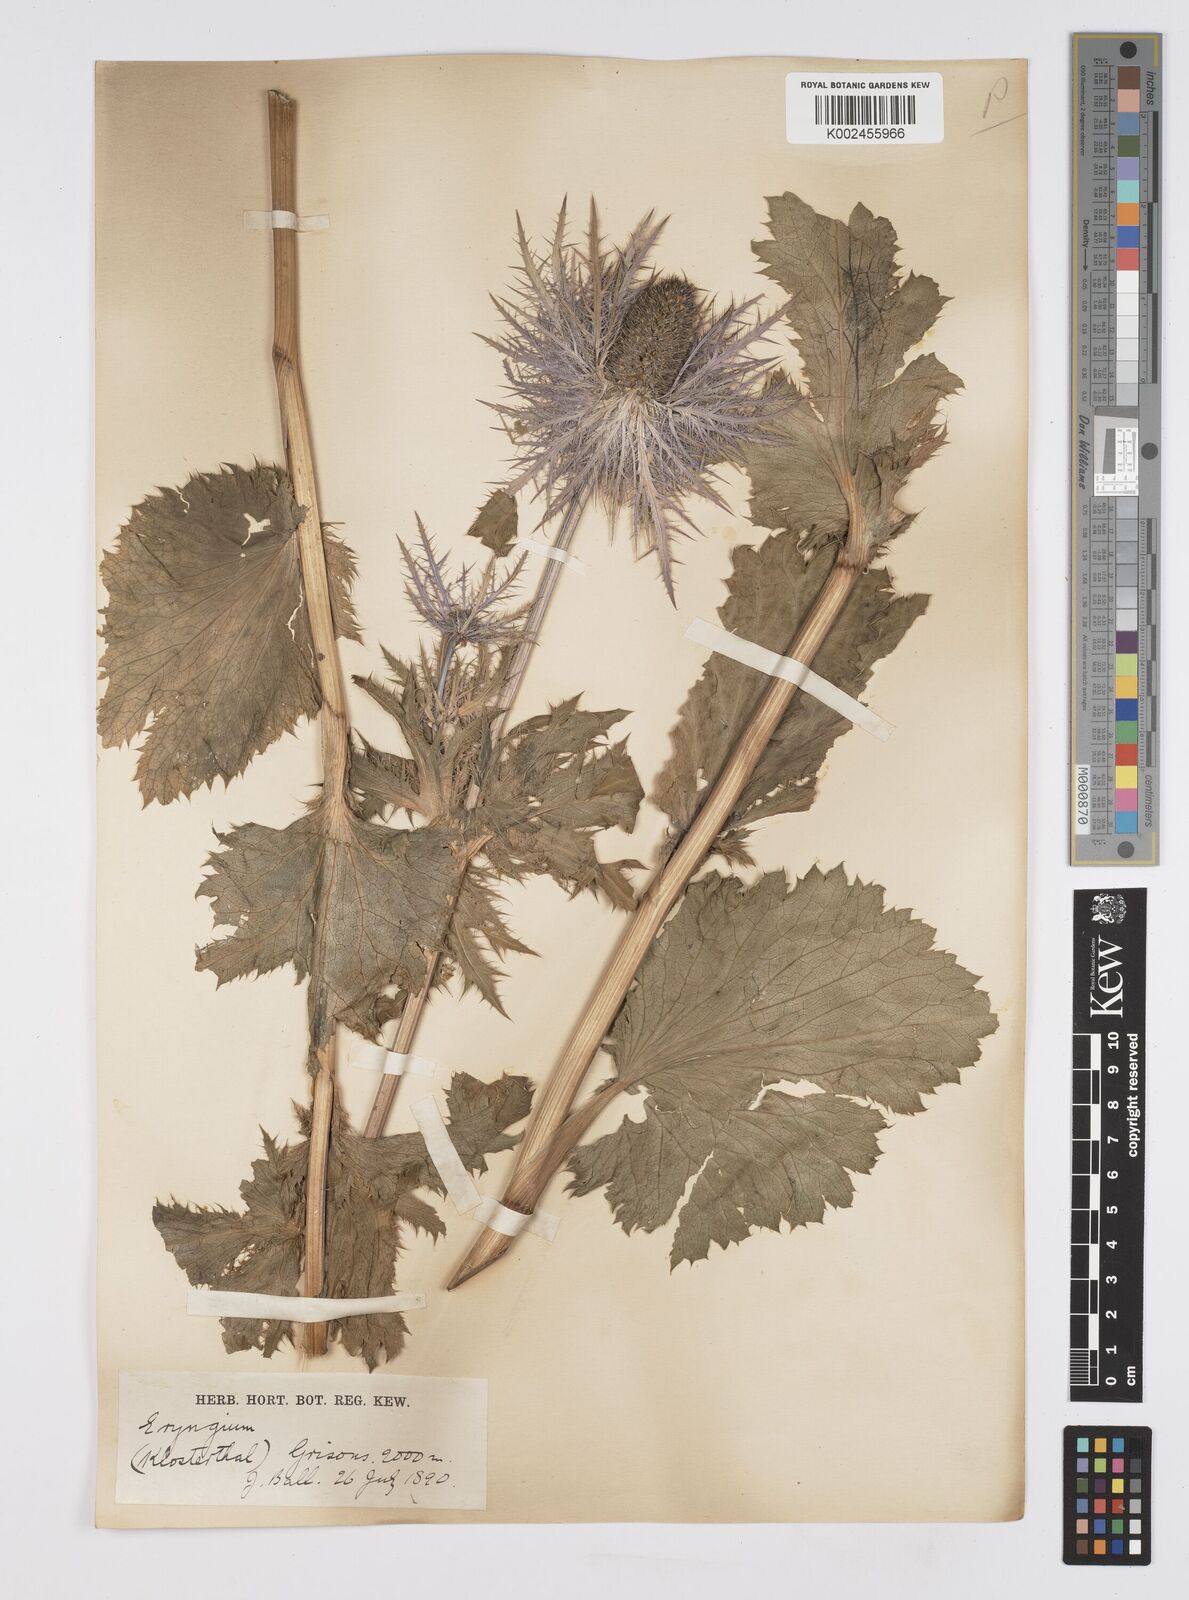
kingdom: Plantae
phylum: Tracheophyta
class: Magnoliopsida
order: Apiales
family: Apiaceae
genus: Eryngium
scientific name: Eryngium alpinum
